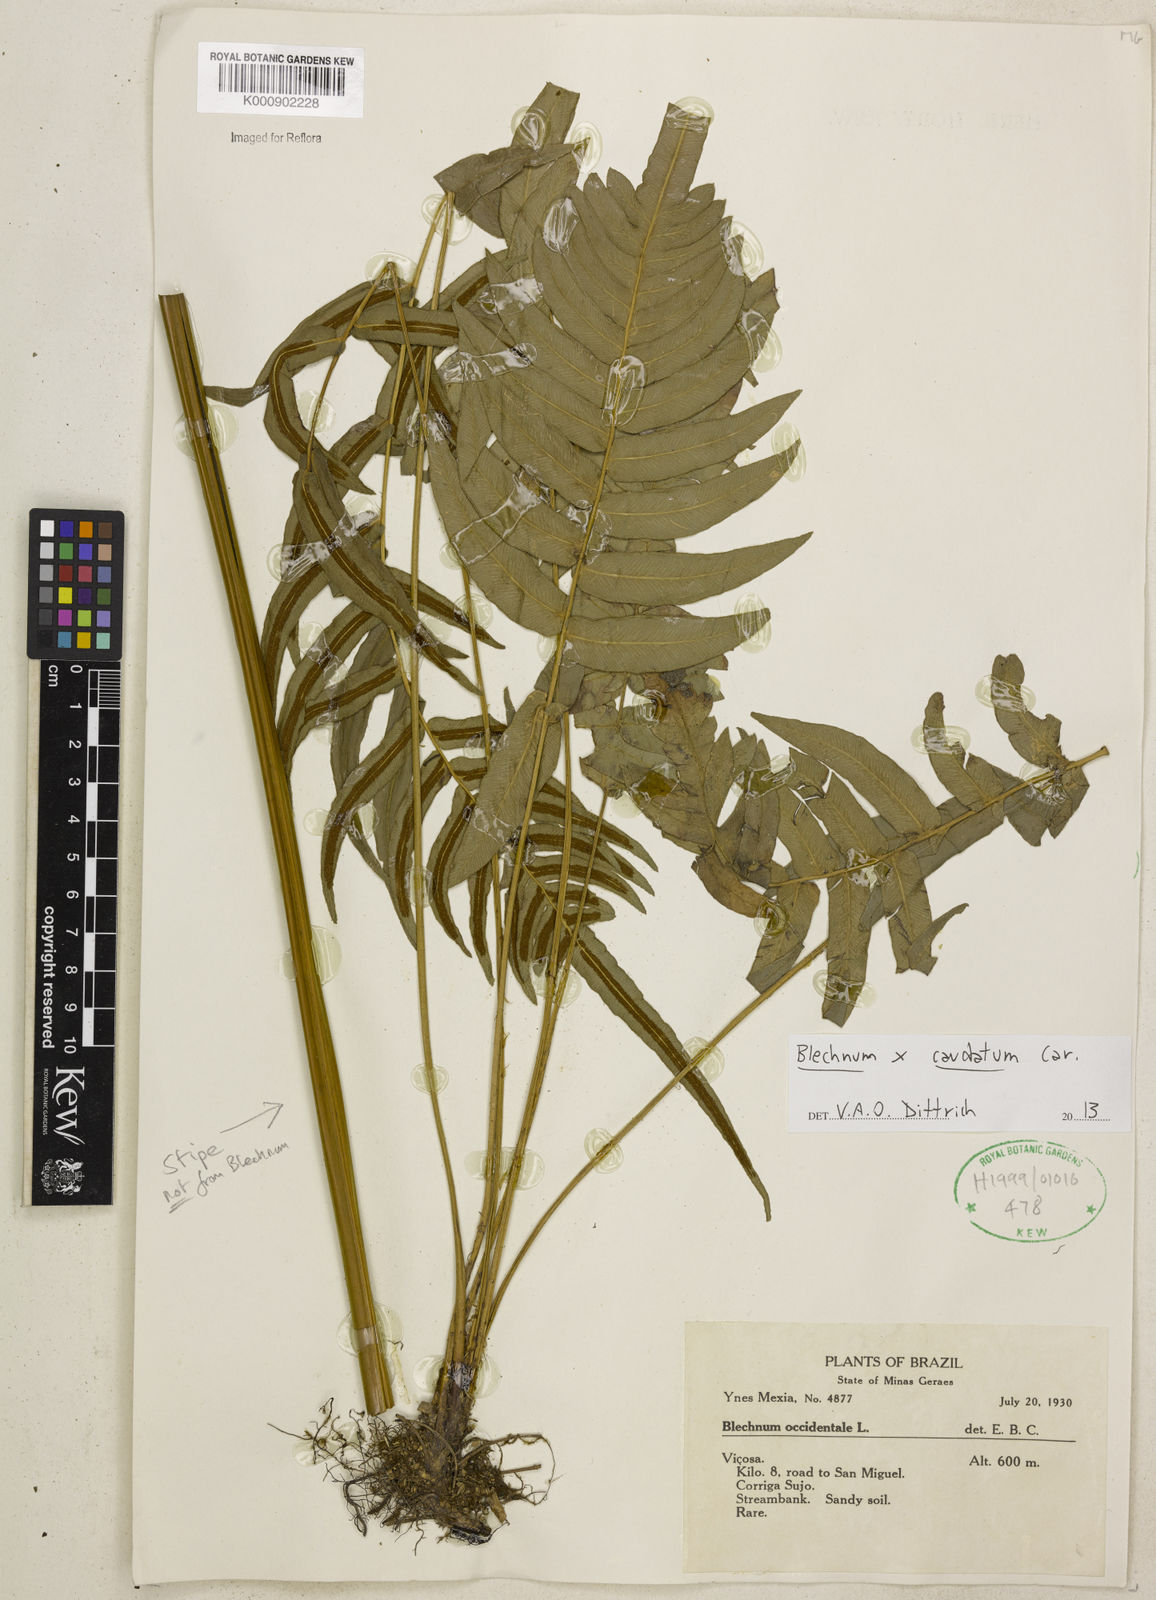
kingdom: Plantae
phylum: Tracheophyta
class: Polypodiopsida
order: Polypodiales
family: Blechnaceae
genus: Blechnum
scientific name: Blechnum gracile
